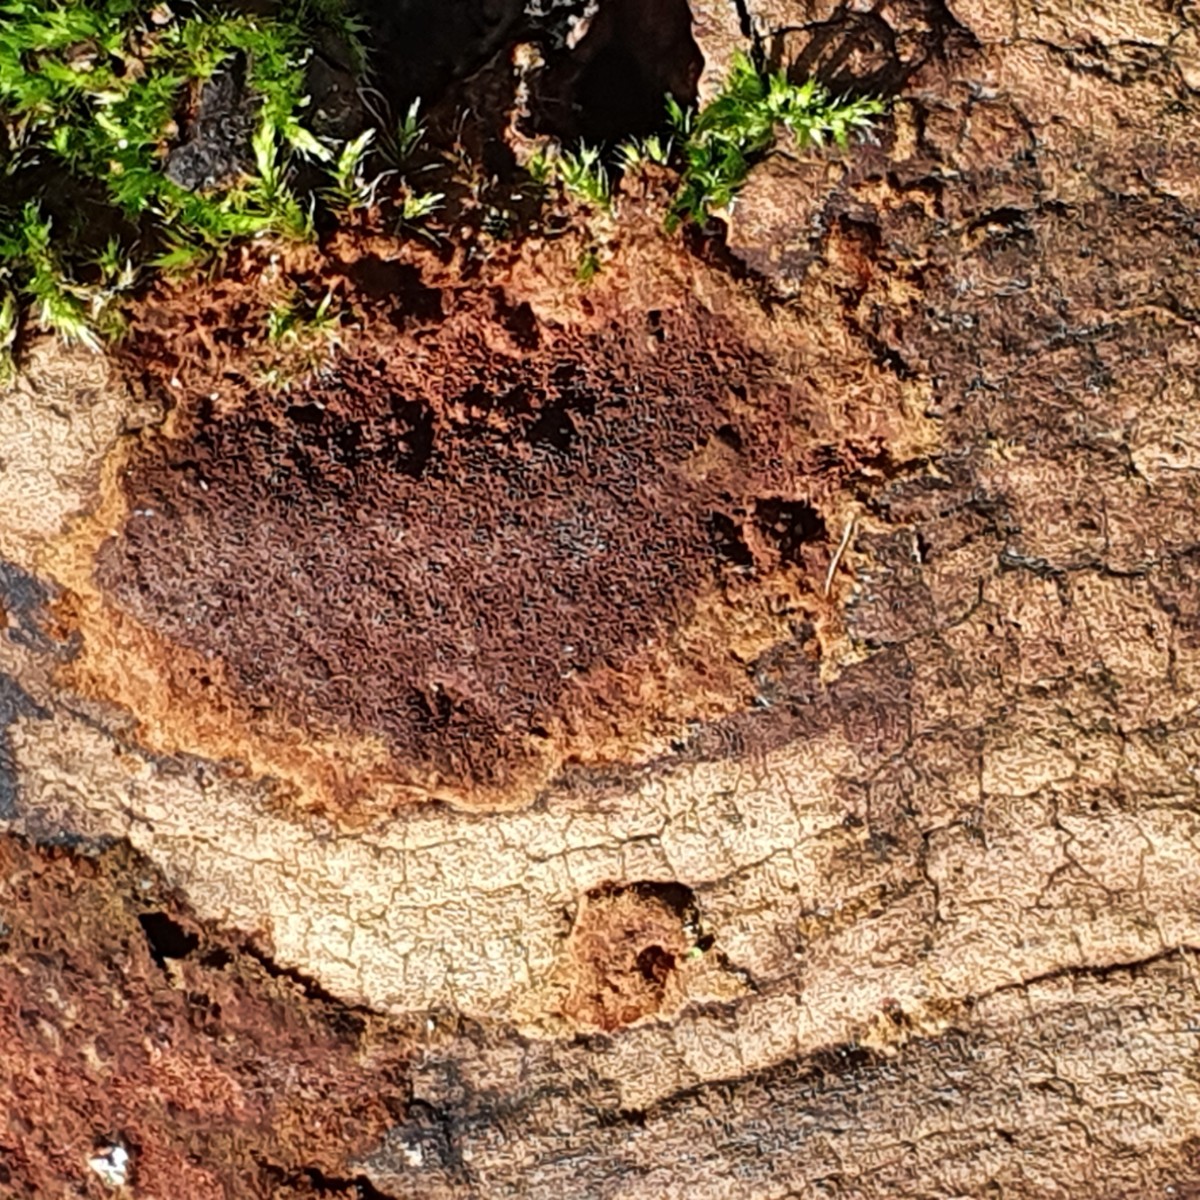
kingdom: Fungi
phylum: Basidiomycota
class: Agaricomycetes
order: Hymenochaetales
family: Hymenochaetaceae
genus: Fuscoporia
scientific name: Fuscoporia ferruginosa
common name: rustbrun ildporesvamp
